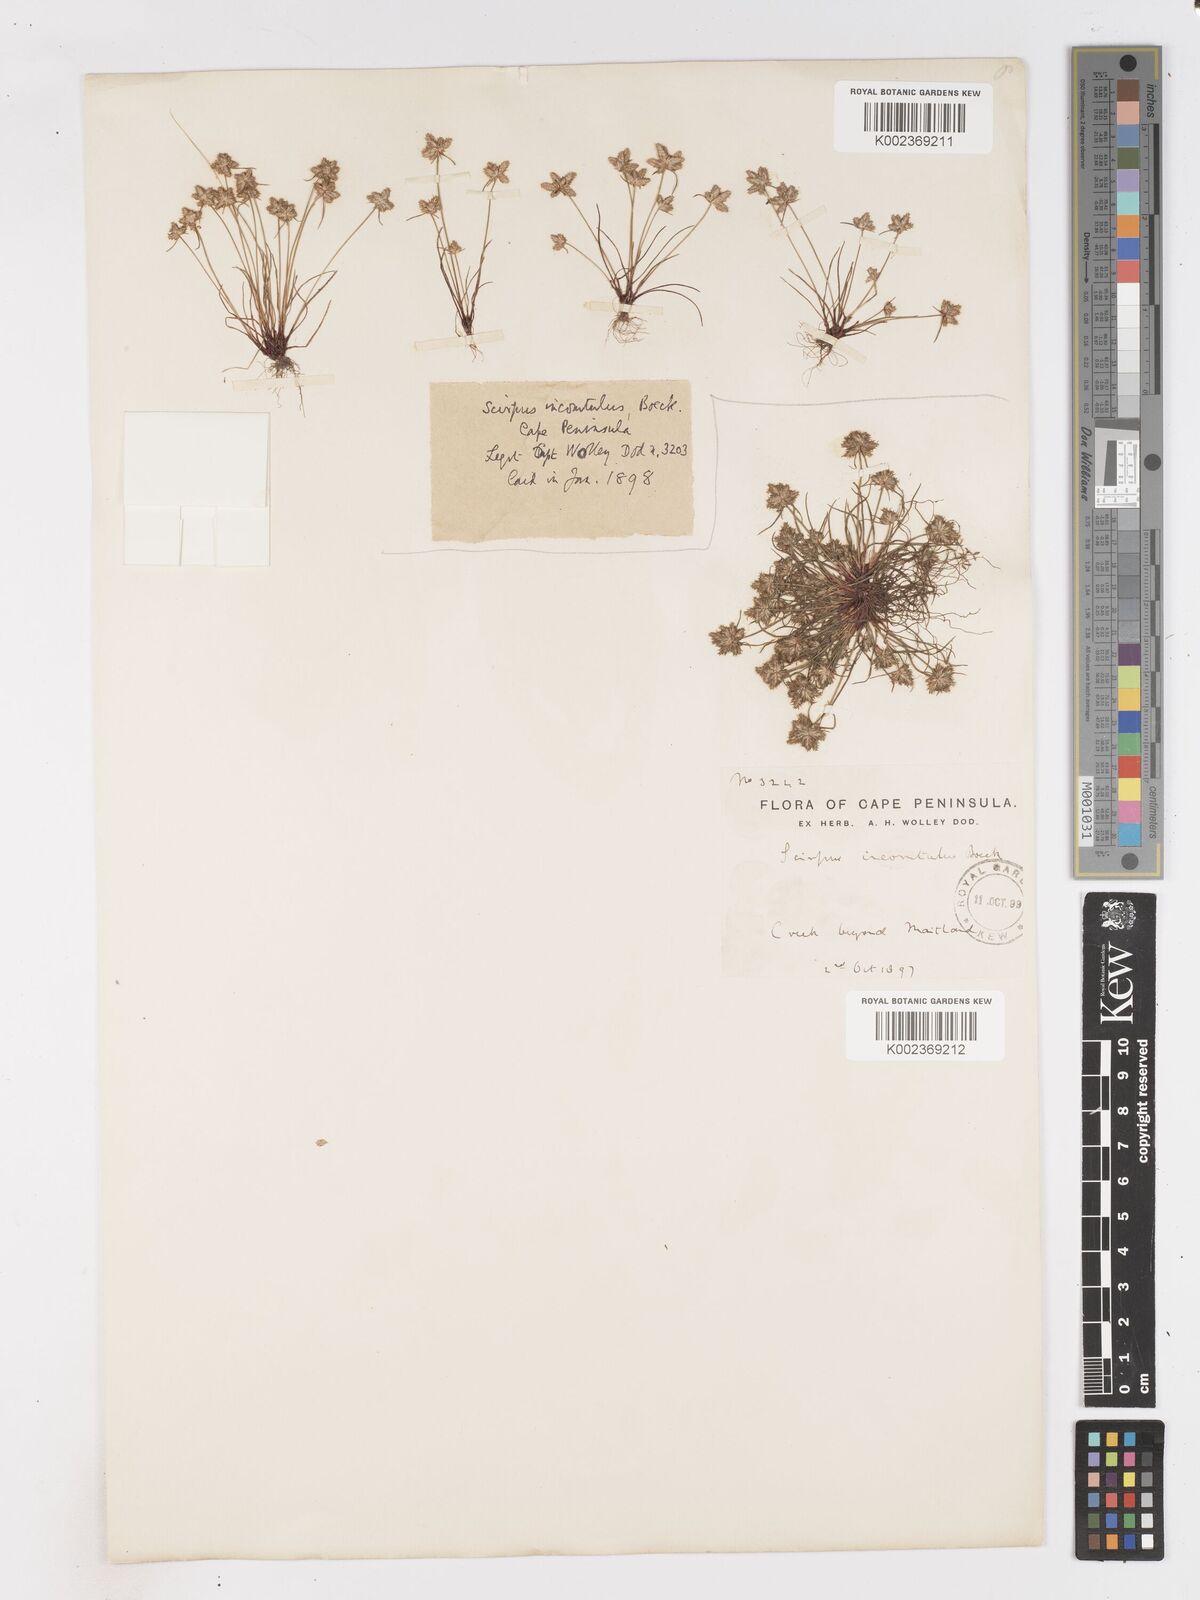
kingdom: Plantae
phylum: Tracheophyta
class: Liliopsida
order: Poales
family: Cyperaceae
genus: Ficinia
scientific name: Ficinia incomtula
